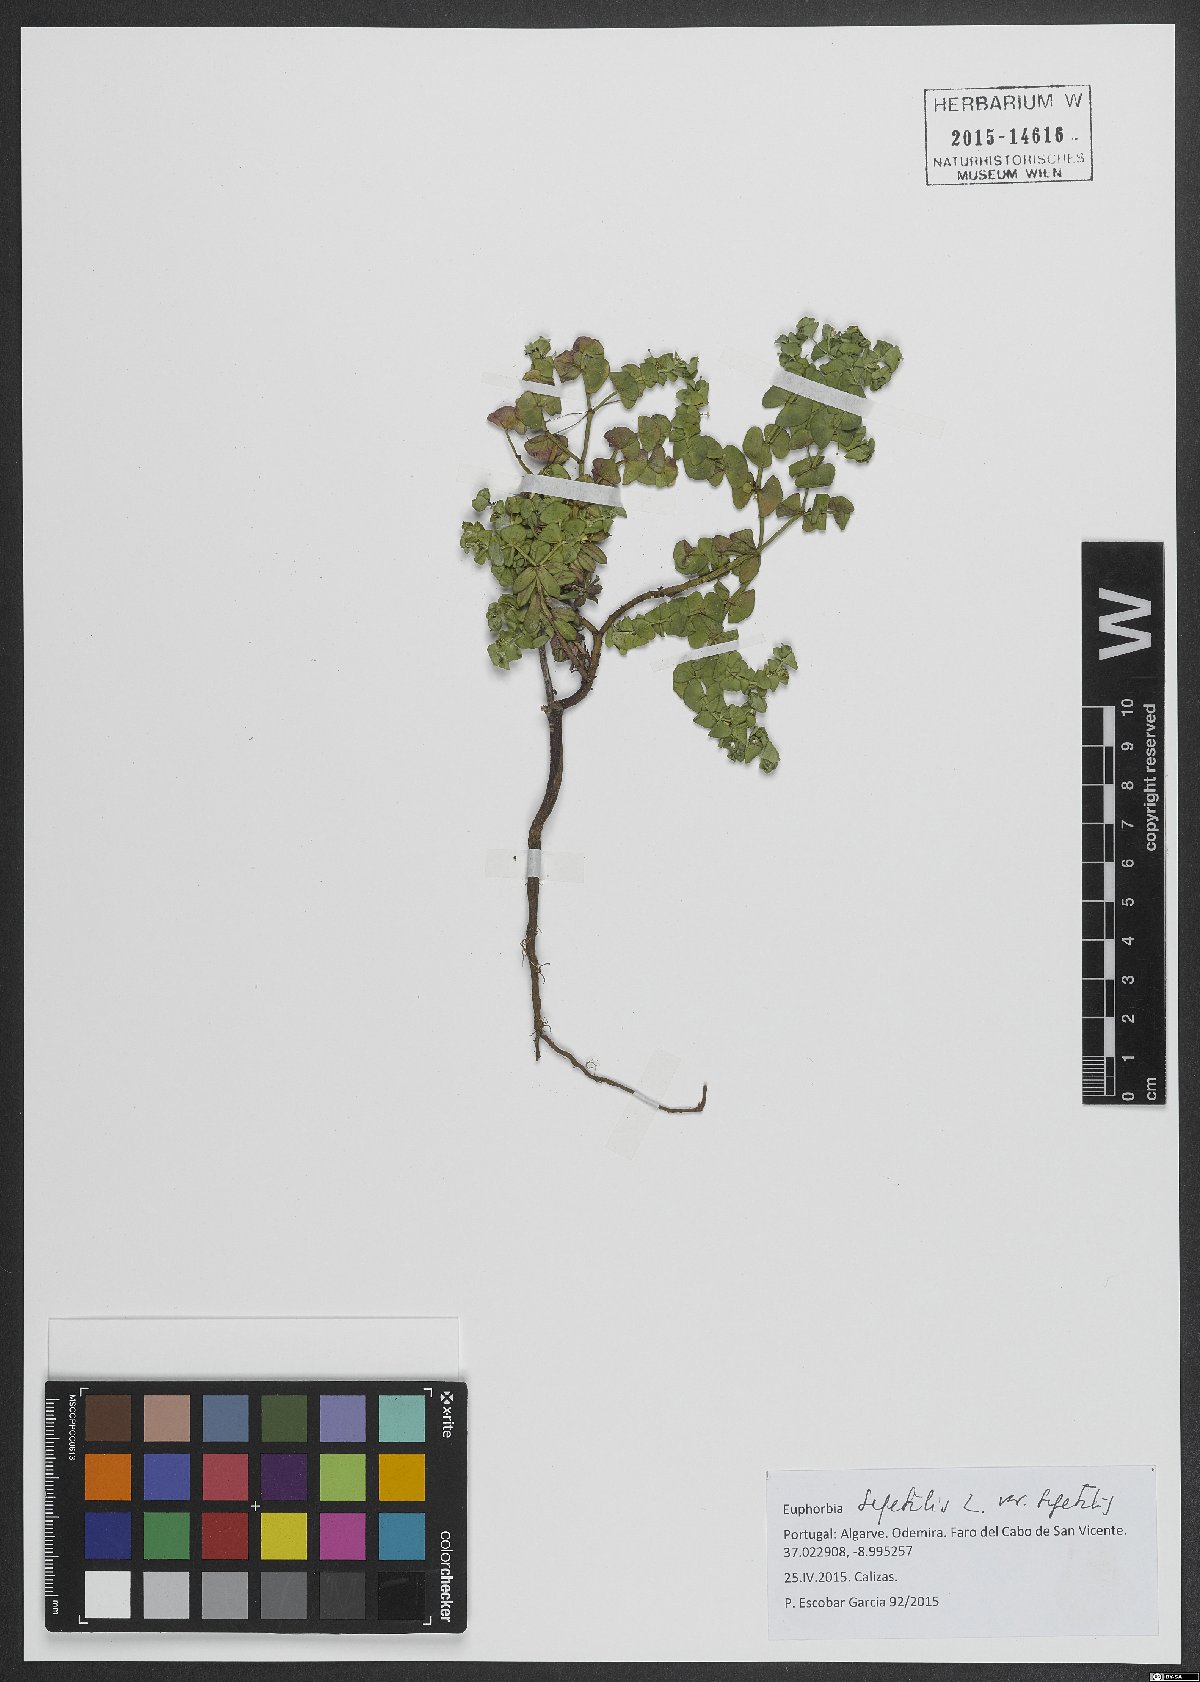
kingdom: Plantae
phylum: Tracheophyta
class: Magnoliopsida
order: Malpighiales
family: Euphorbiaceae
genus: Euphorbia
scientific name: Euphorbia segetalis
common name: Corn spurge
